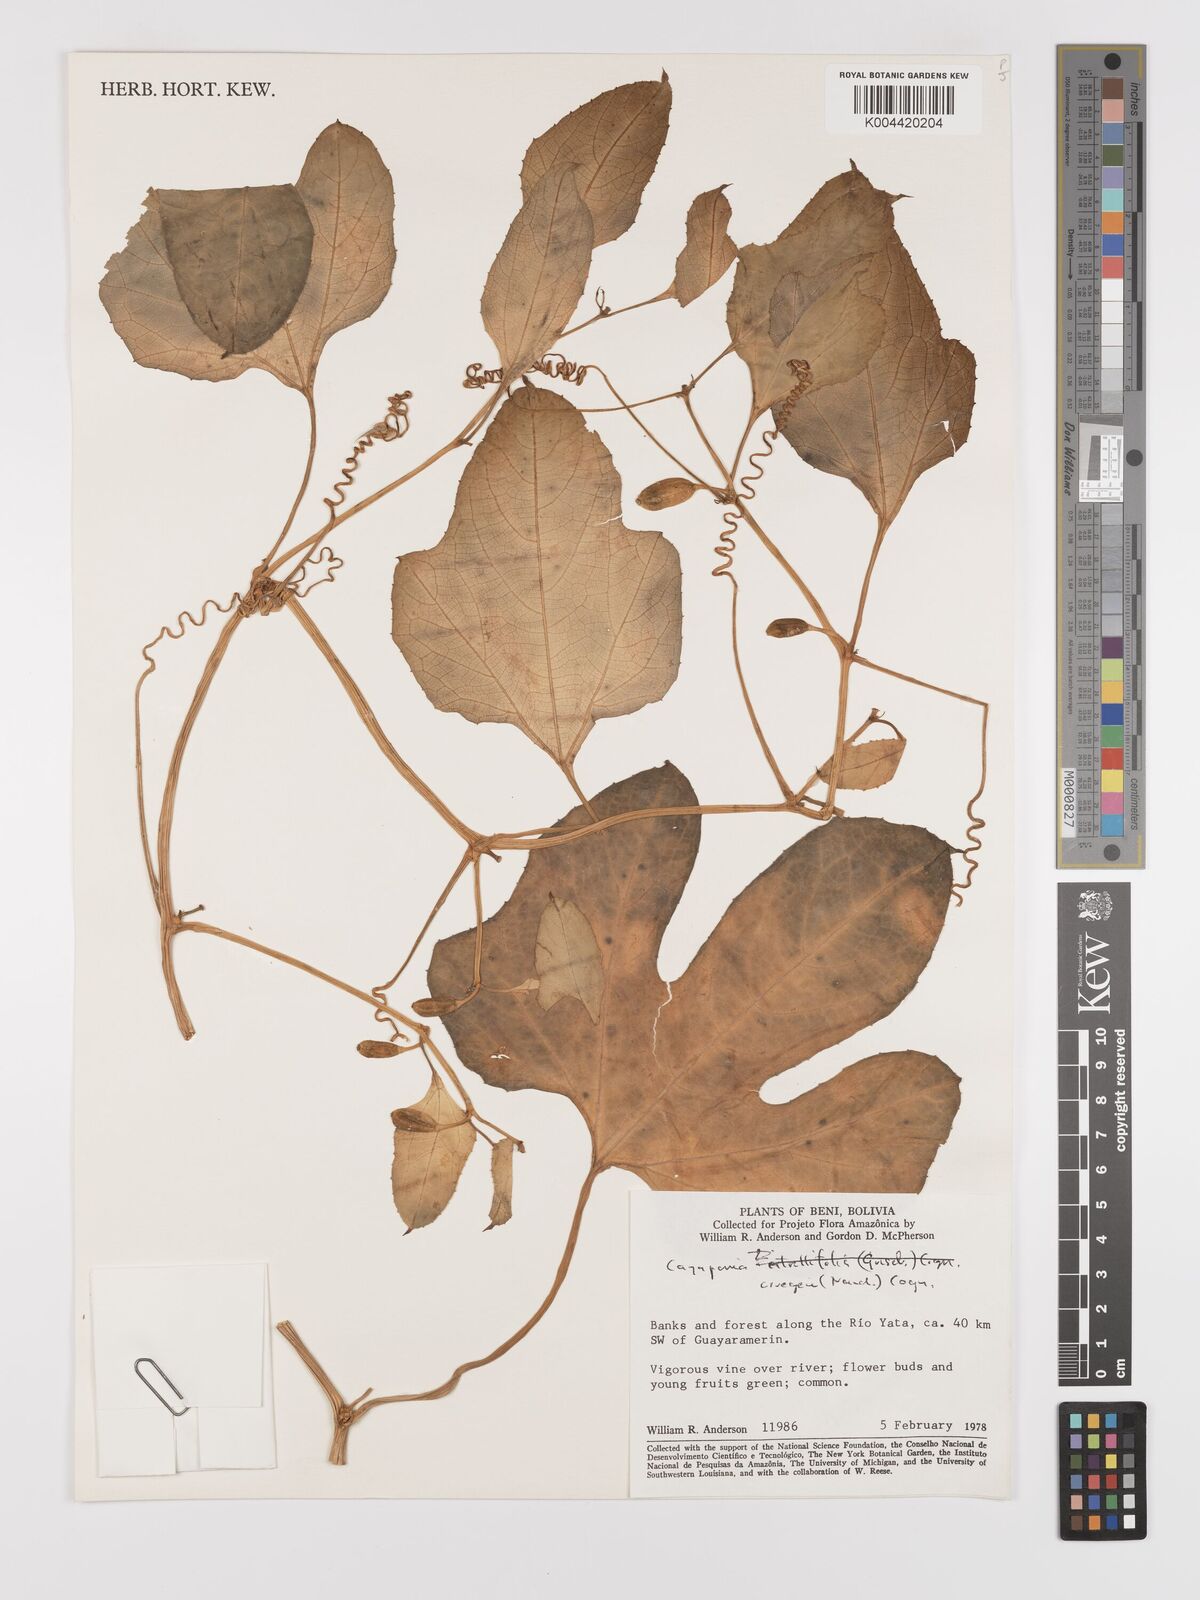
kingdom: Plantae
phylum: Tracheophyta
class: Magnoliopsida
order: Cucurbitales
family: Cucurbitaceae
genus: Cayaponia
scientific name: Cayaponia cruegeri
